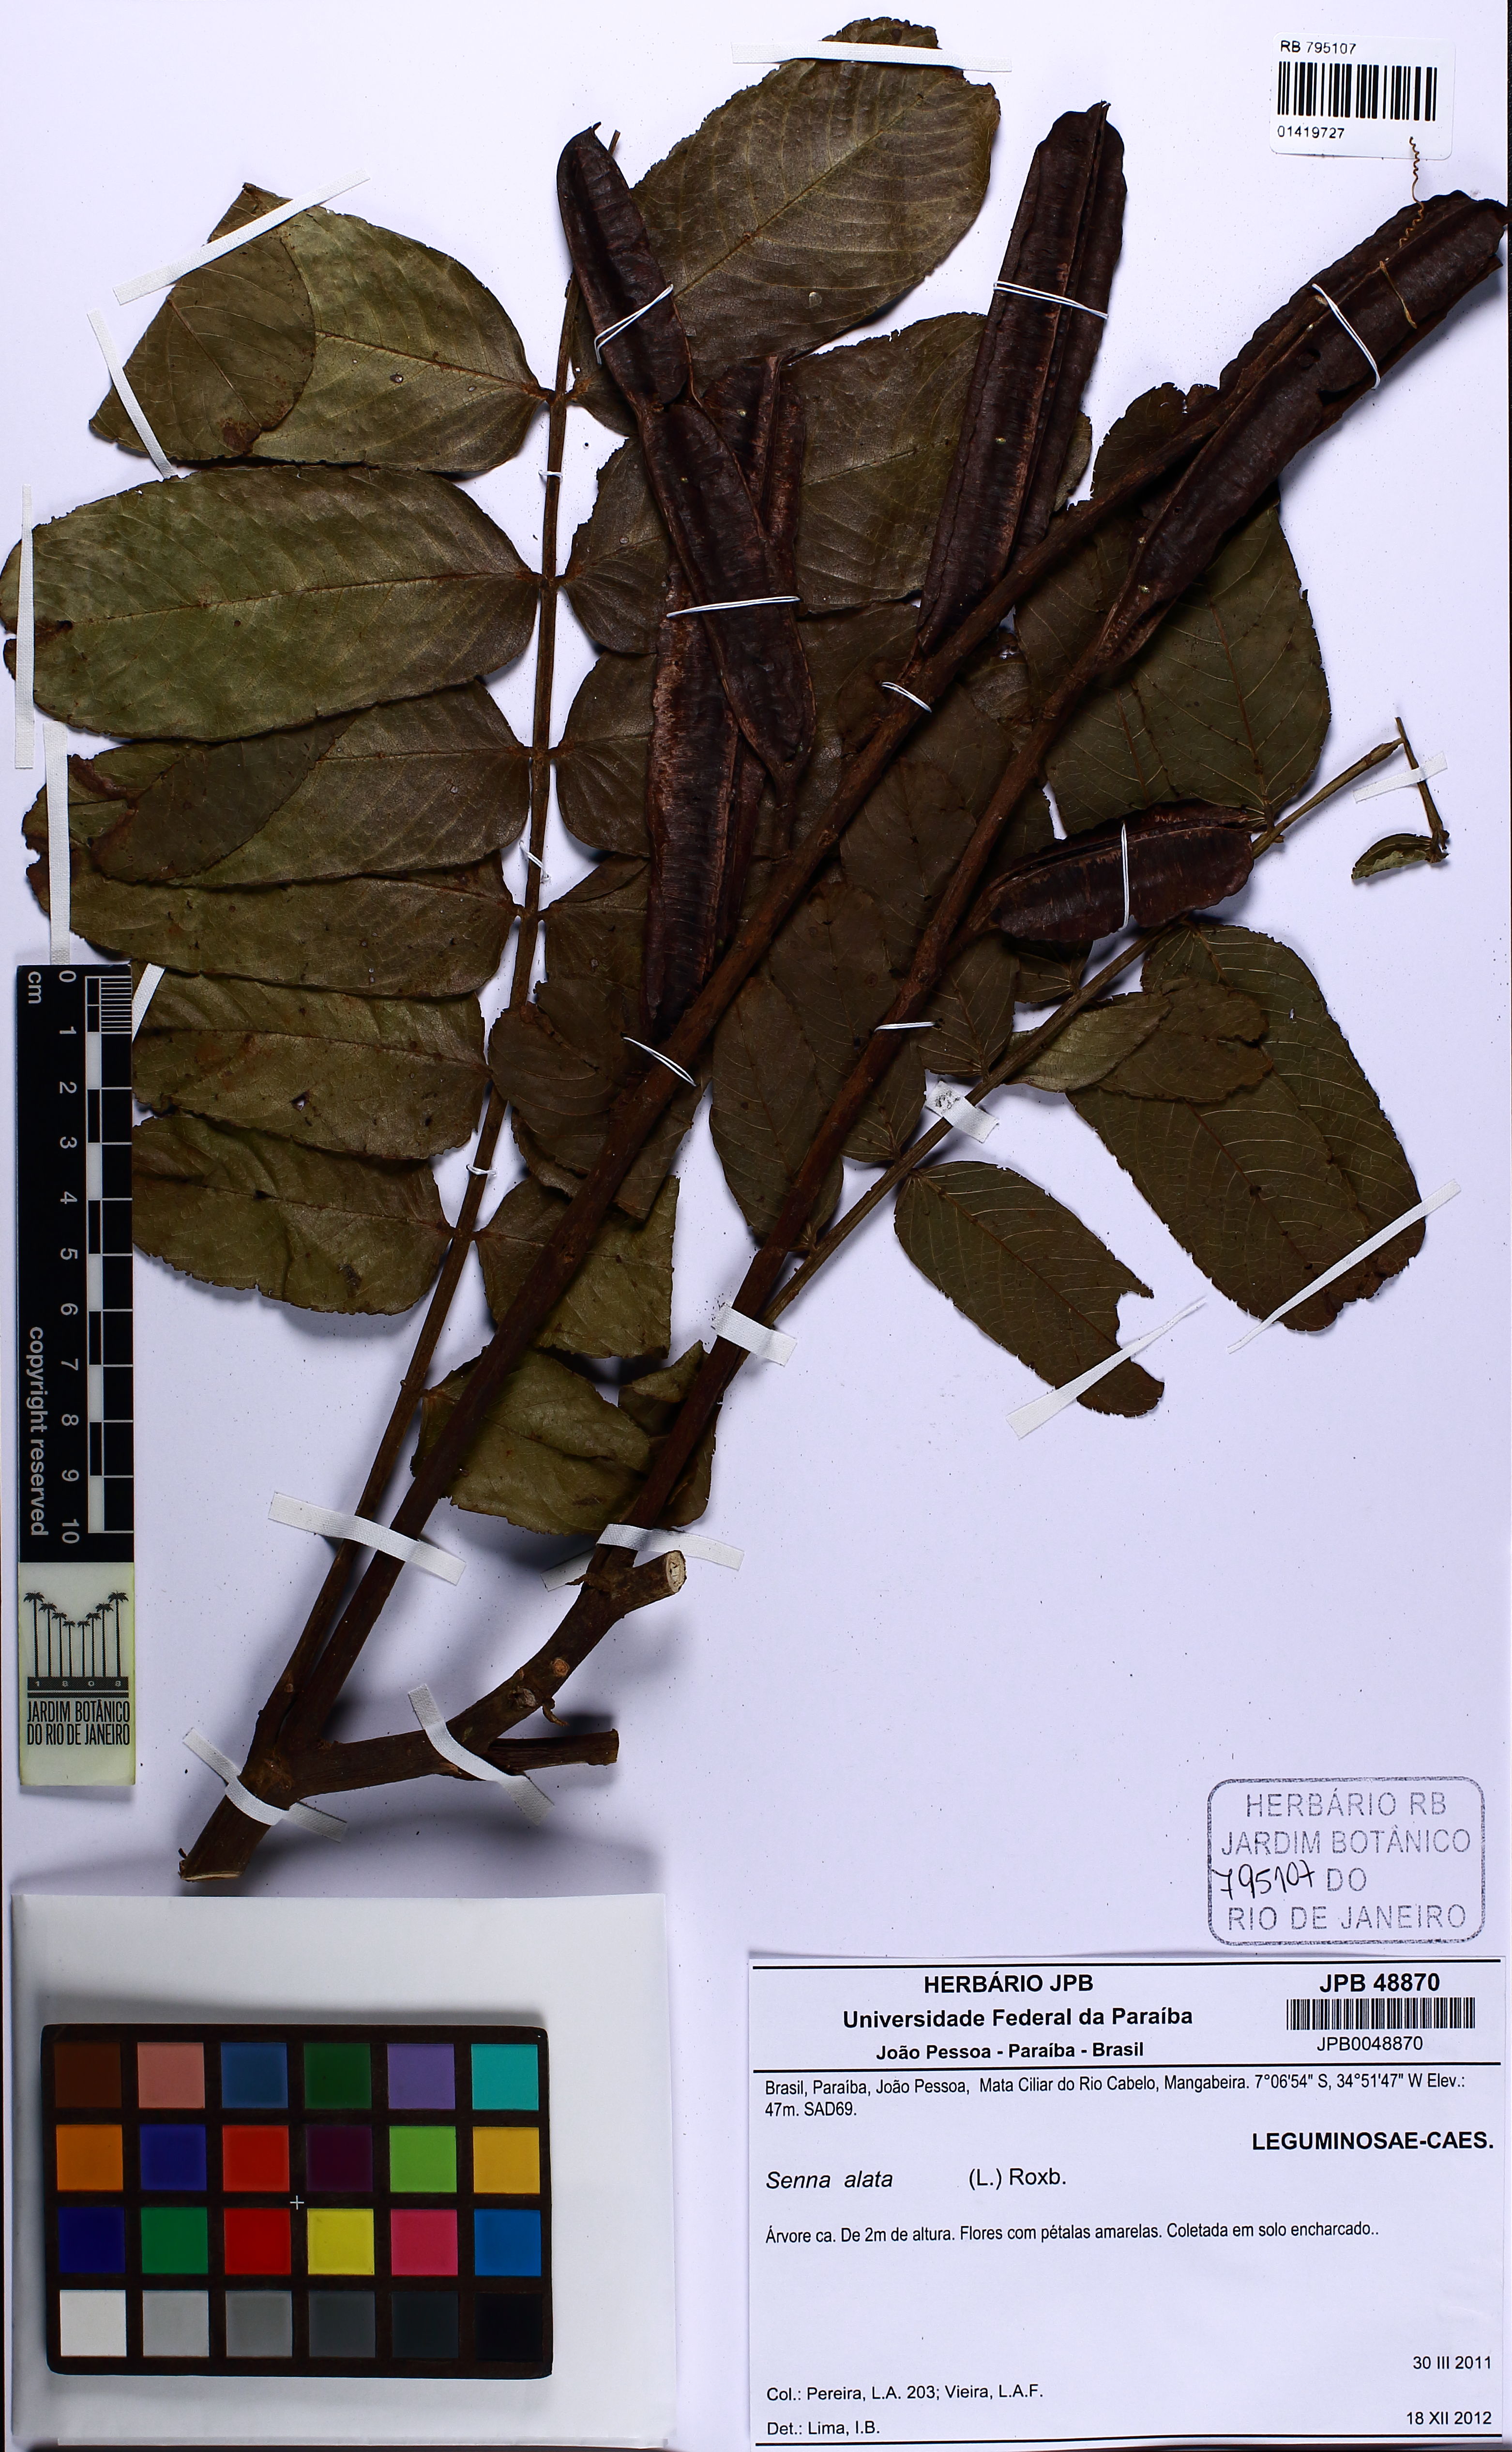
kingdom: Plantae
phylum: Tracheophyta
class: Magnoliopsida
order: Fabales
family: Fabaceae
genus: Senna
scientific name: Senna alata
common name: Emperor's candlesticks
